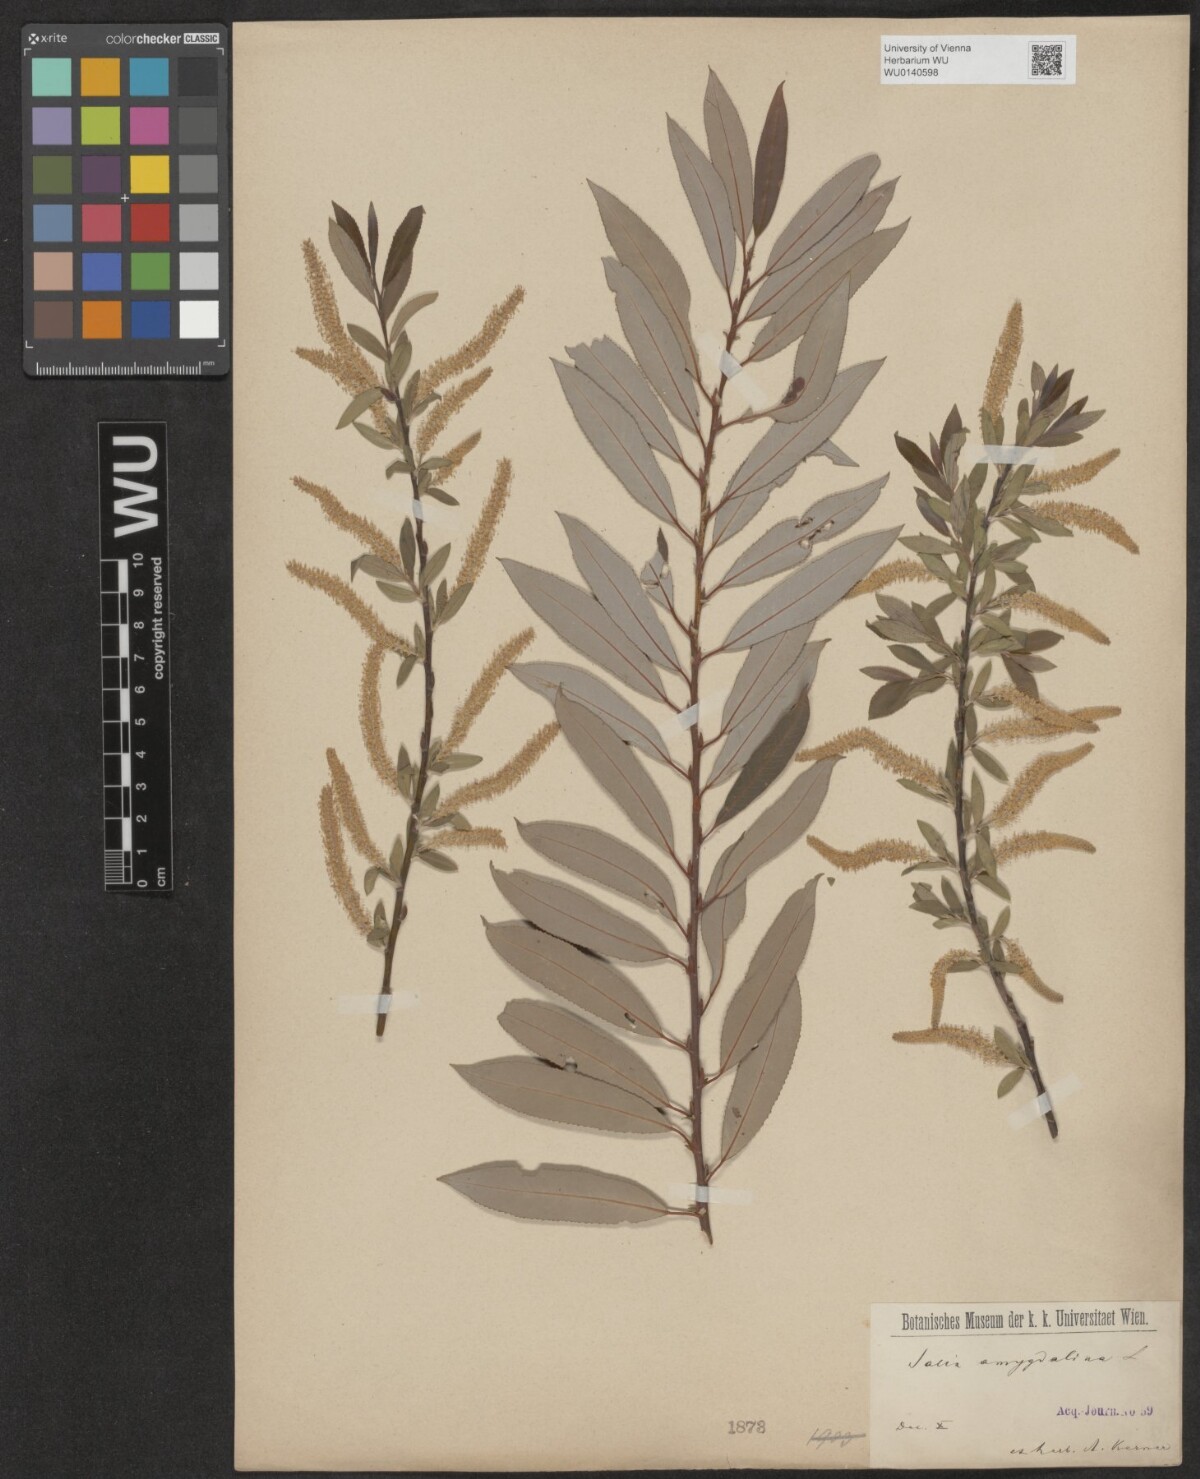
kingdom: Plantae
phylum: Tracheophyta
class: Magnoliopsida
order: Malpighiales
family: Salicaceae
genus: Salix
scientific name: Salix triandra
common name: Almond willow
